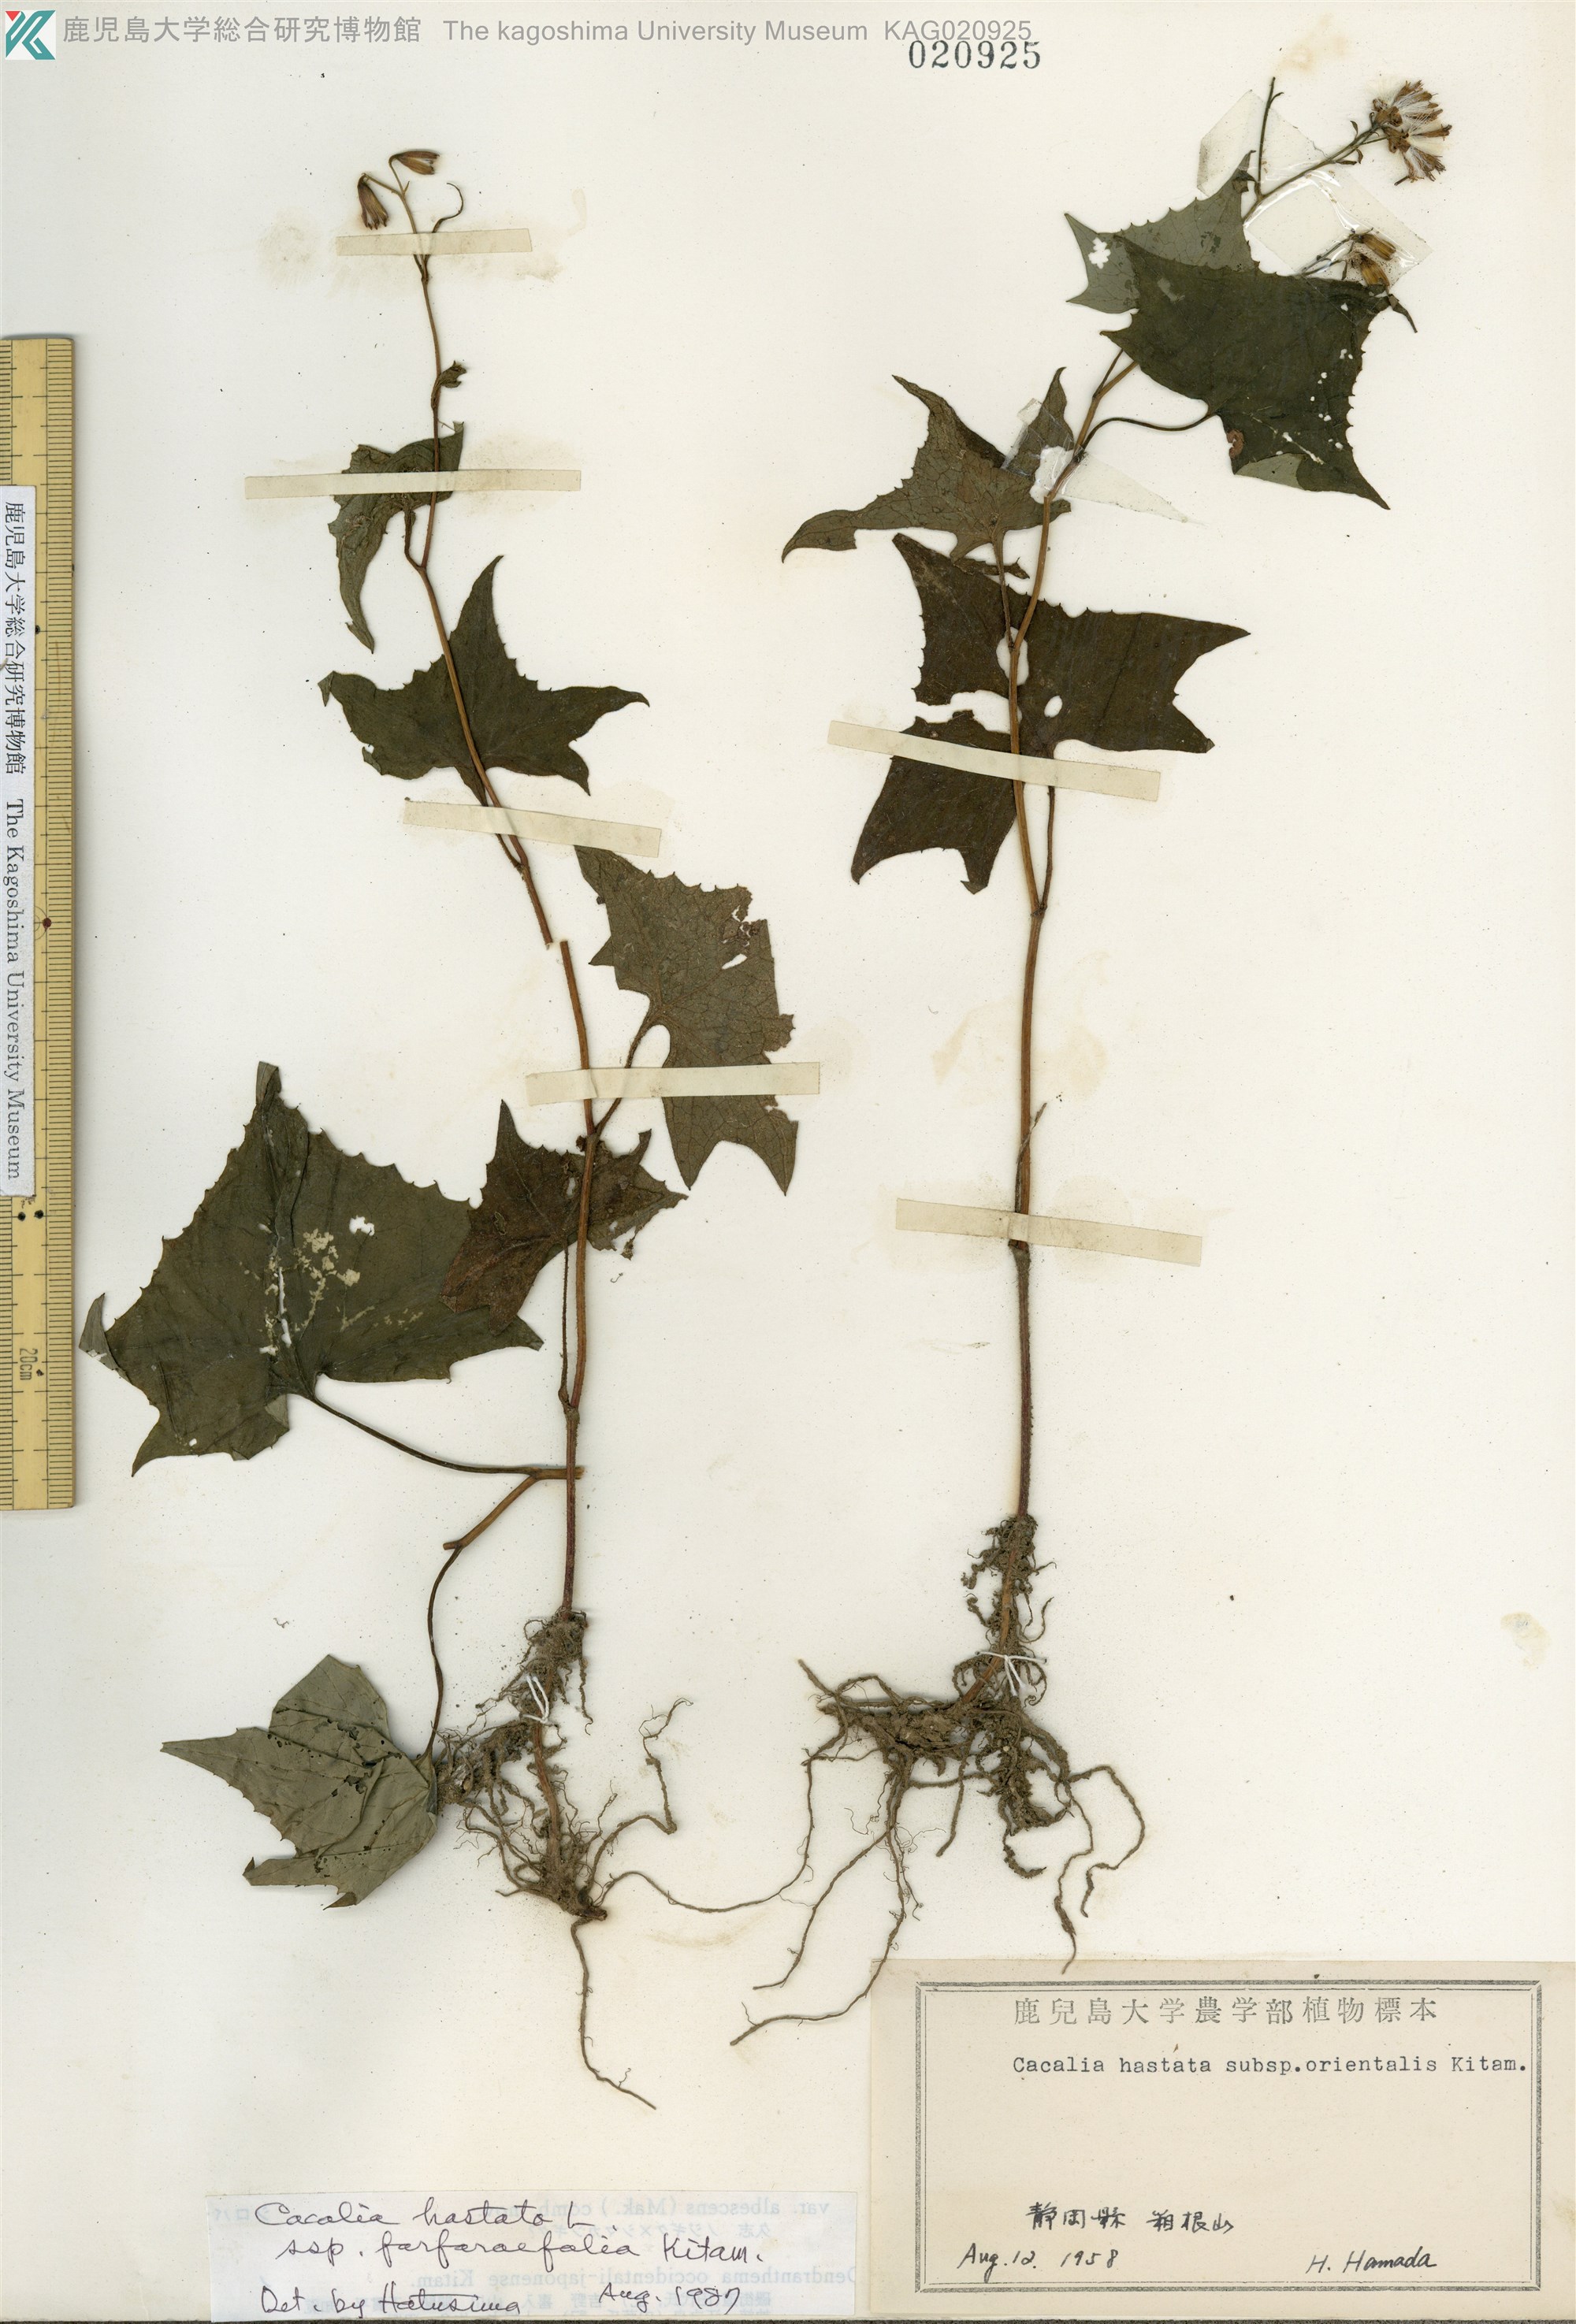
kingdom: Plantae
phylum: Tracheophyta
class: Magnoliopsida
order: Asterales
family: Asteraceae
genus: Parasenecio
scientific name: Parasenecio maximowicziana
